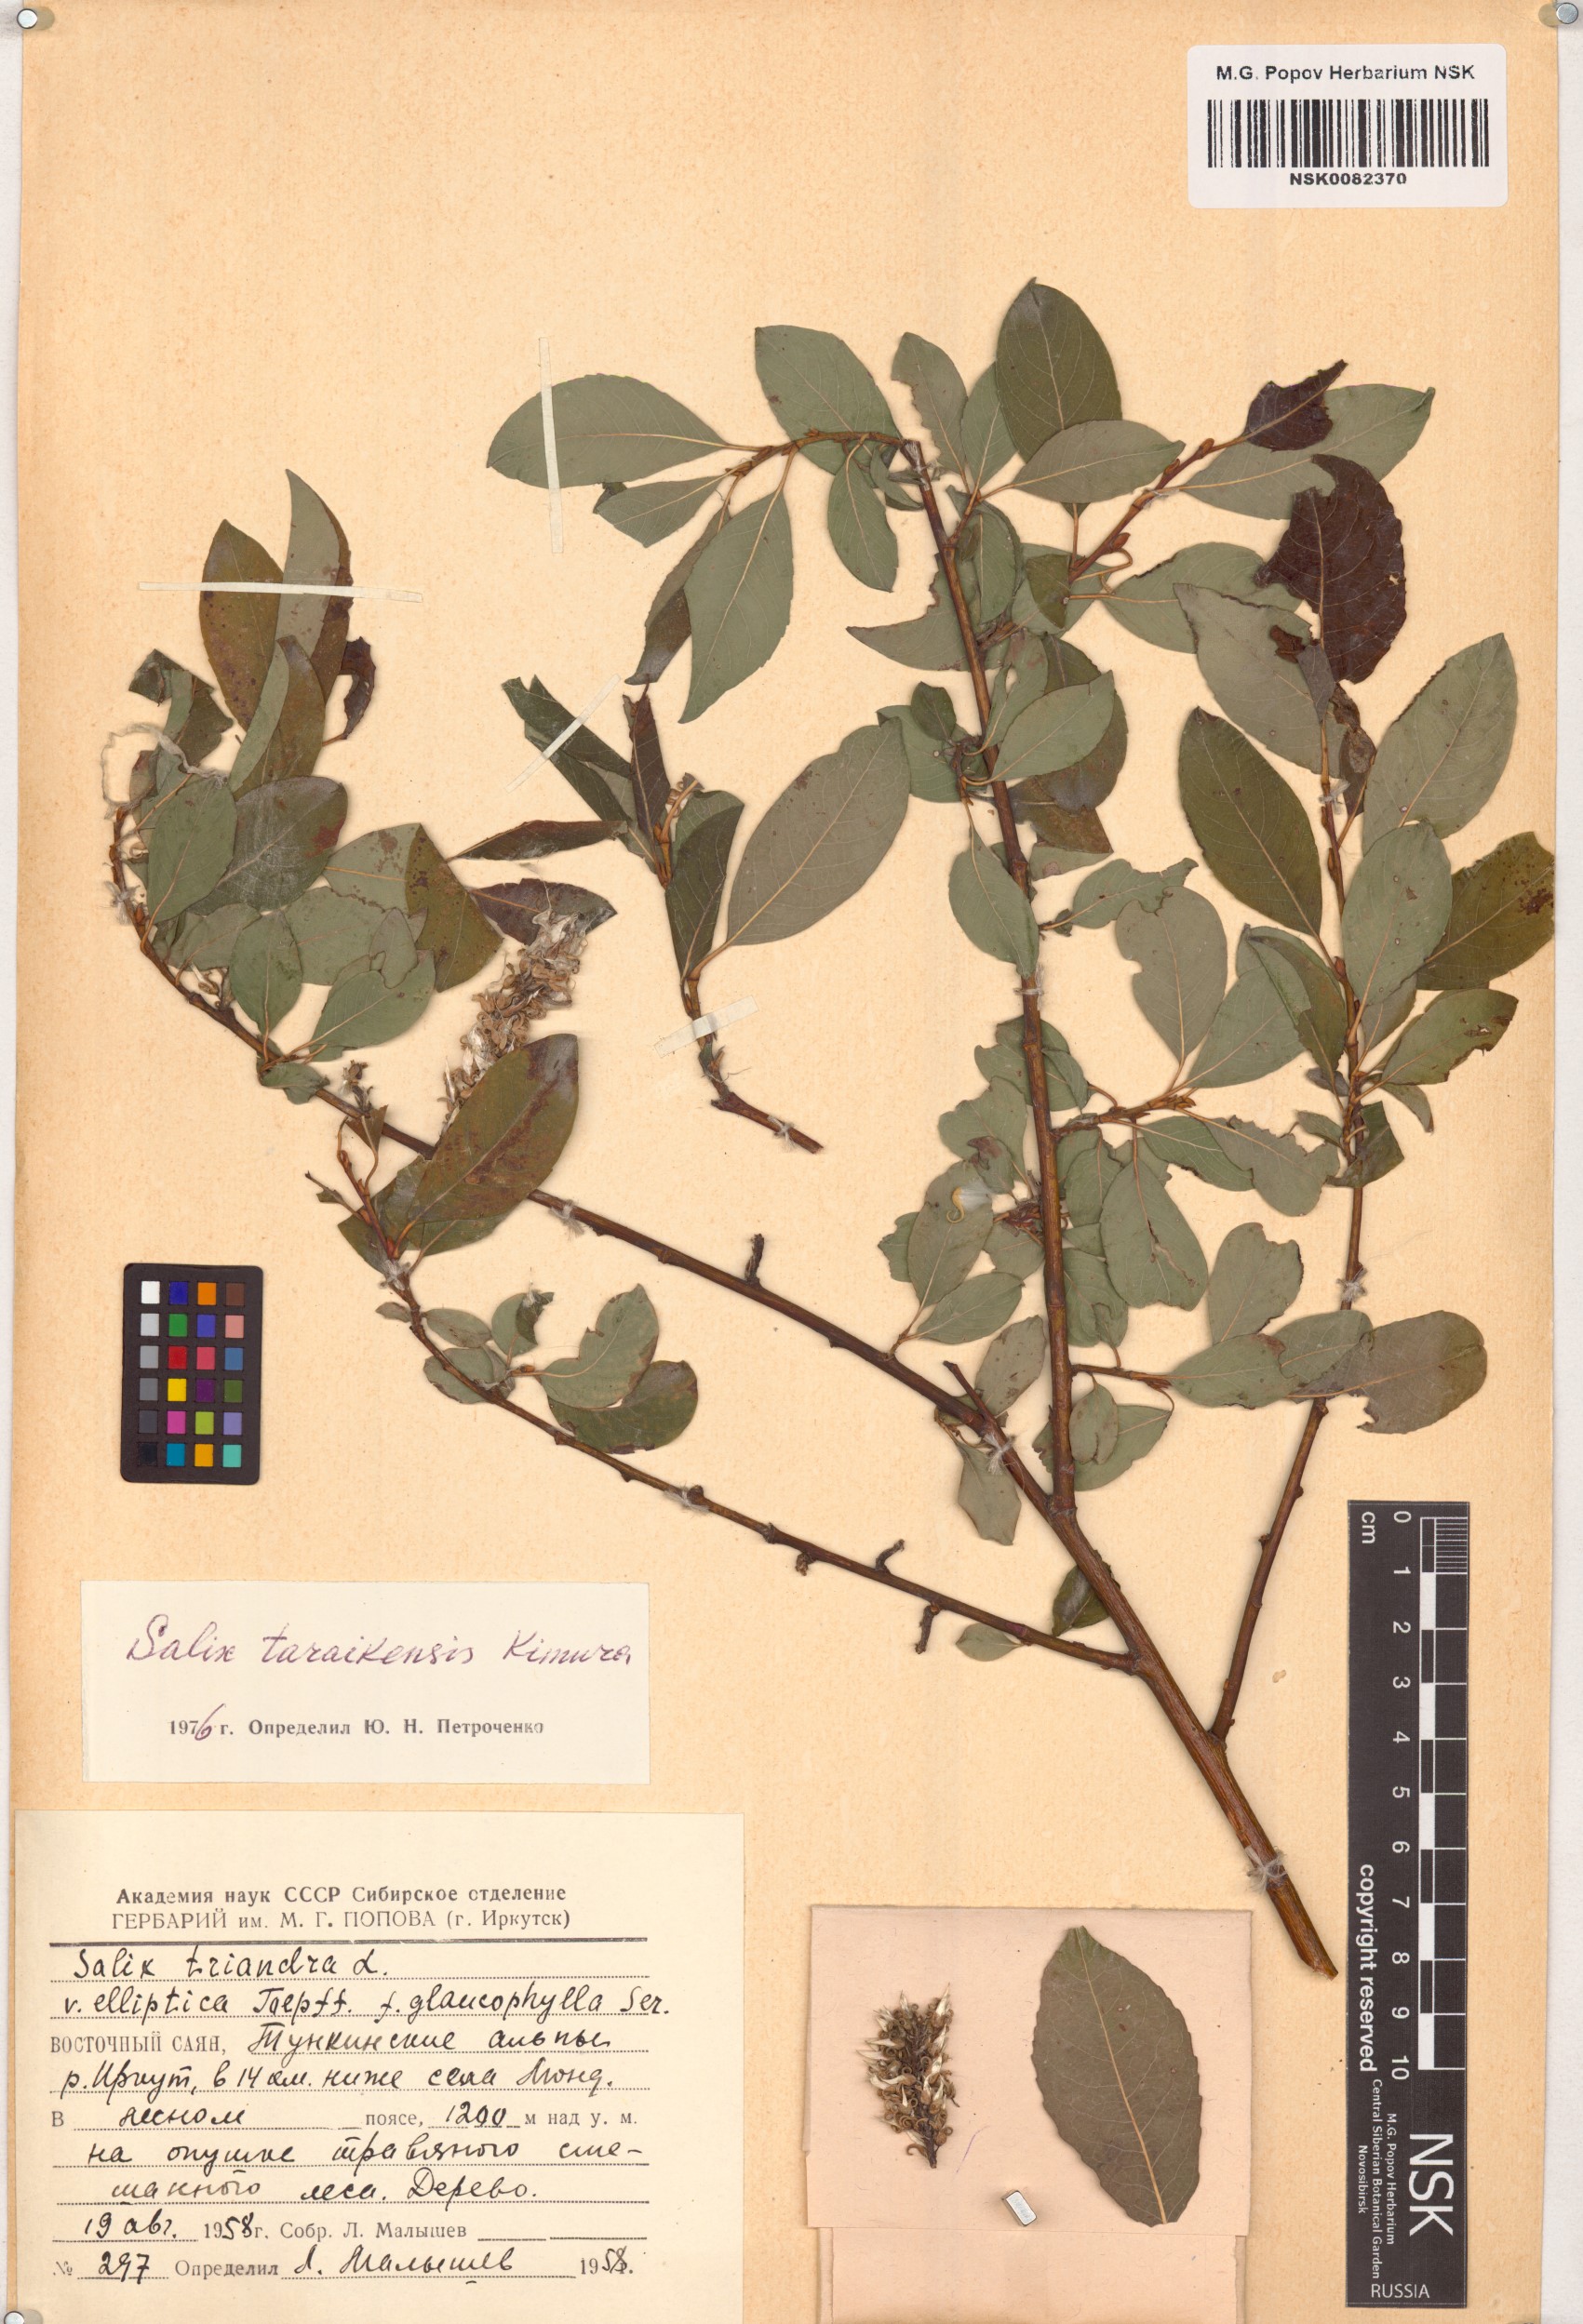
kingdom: Plantae
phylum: Tracheophyta
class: Magnoliopsida
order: Malpighiales
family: Salicaceae
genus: Salix
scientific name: Salix taraikensis
